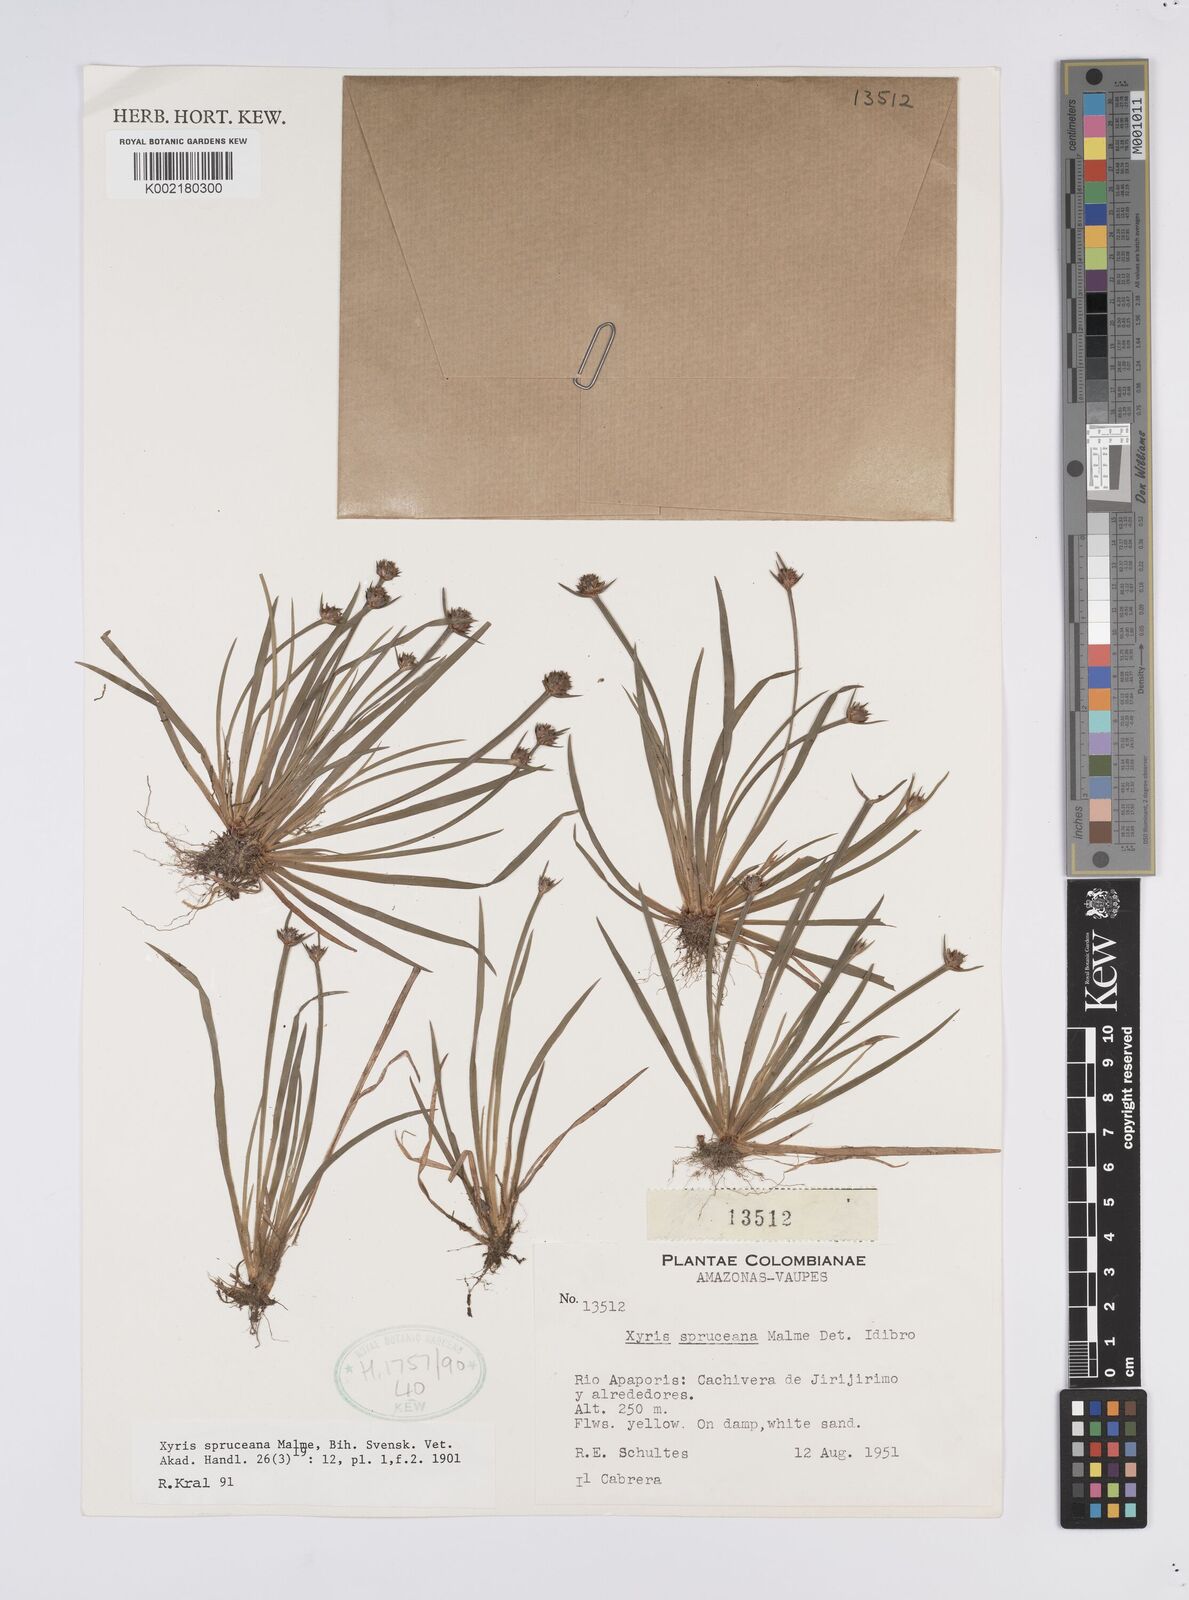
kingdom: Plantae
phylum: Tracheophyta
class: Liliopsida
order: Poales
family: Xyridaceae
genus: Xyris
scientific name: Xyris spruceana
